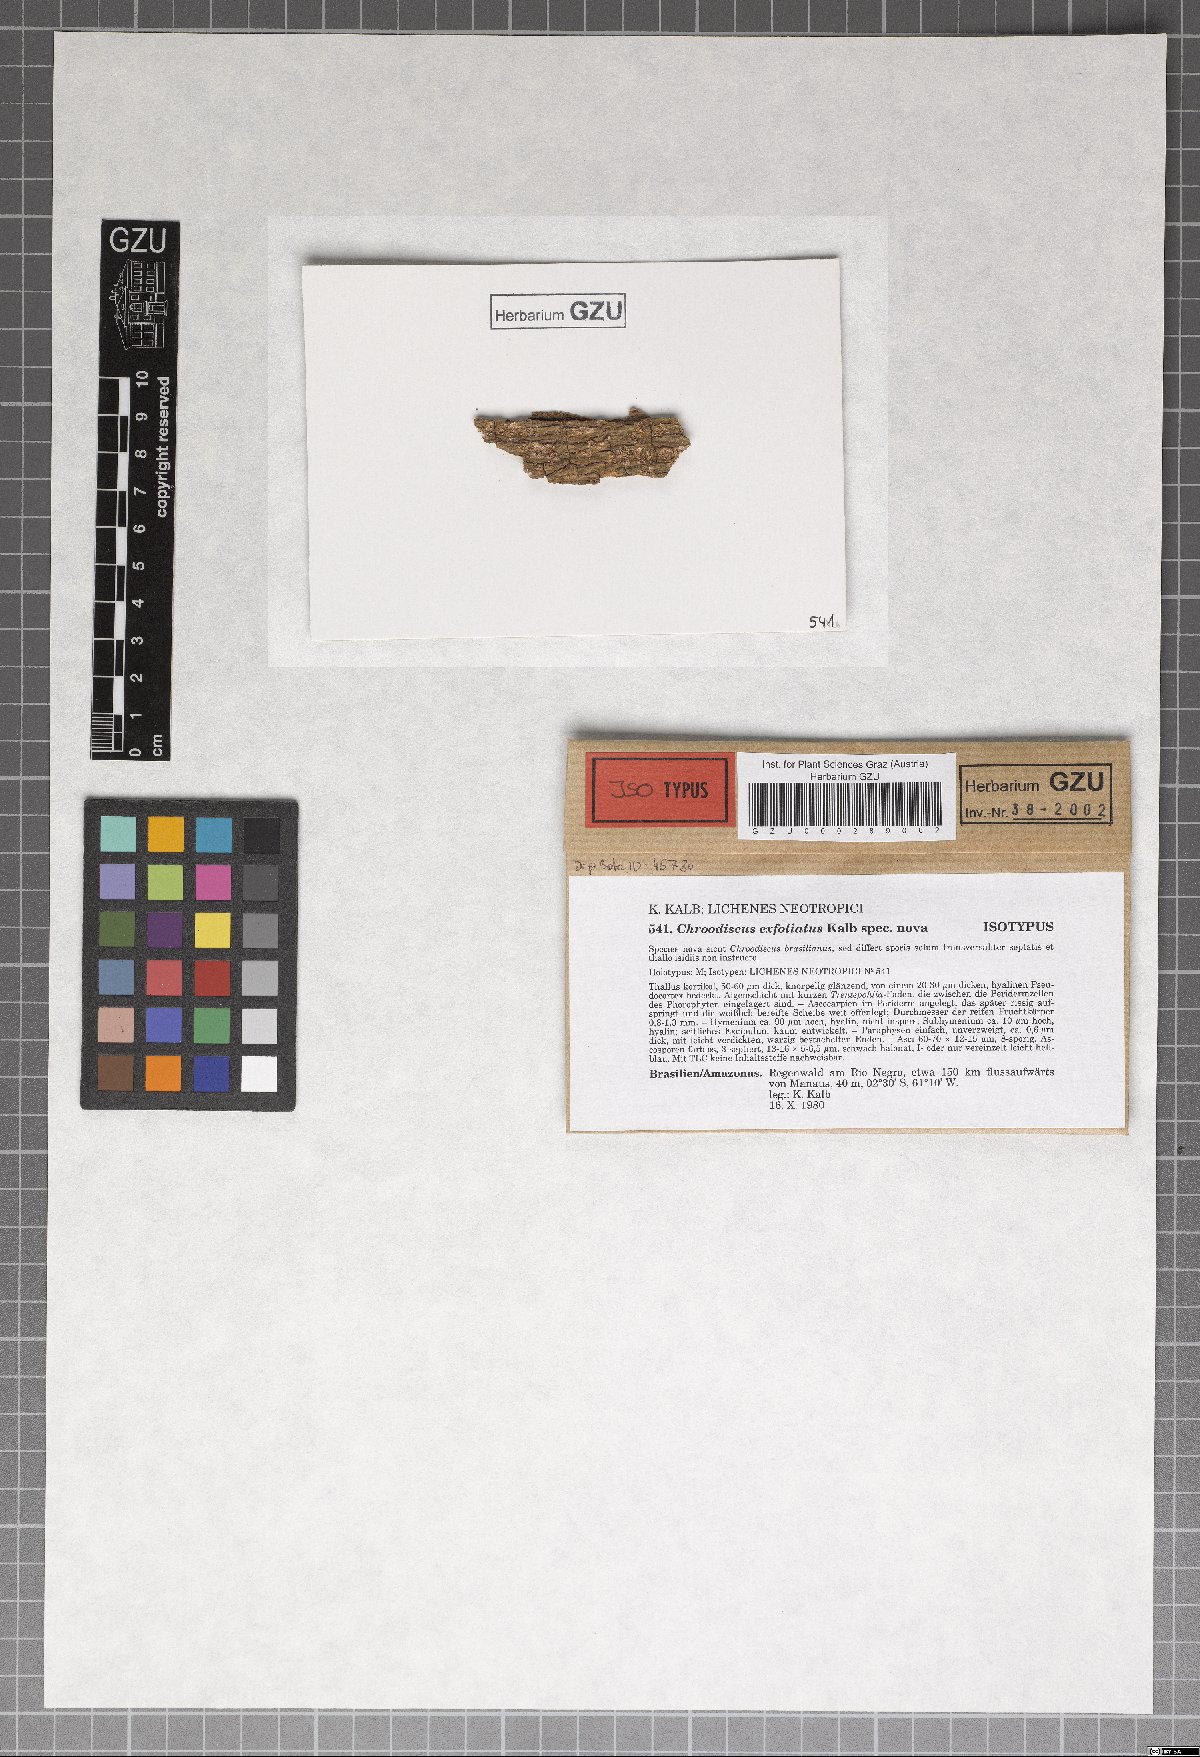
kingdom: Fungi
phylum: Ascomycota
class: Lecanoromycetes
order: Ostropales
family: Graphidaceae
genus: Chroodiscus
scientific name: Chroodiscus exfoliatus
